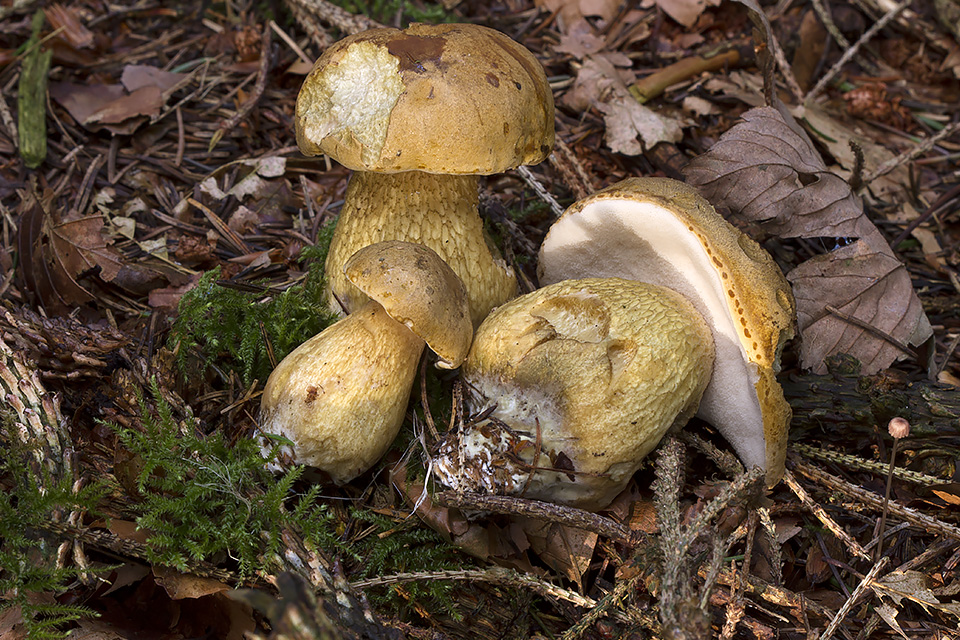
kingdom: Fungi
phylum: Basidiomycota
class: Agaricomycetes
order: Boletales
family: Boletaceae
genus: Tylopilus
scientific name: Tylopilus felleus
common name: galderørhat
